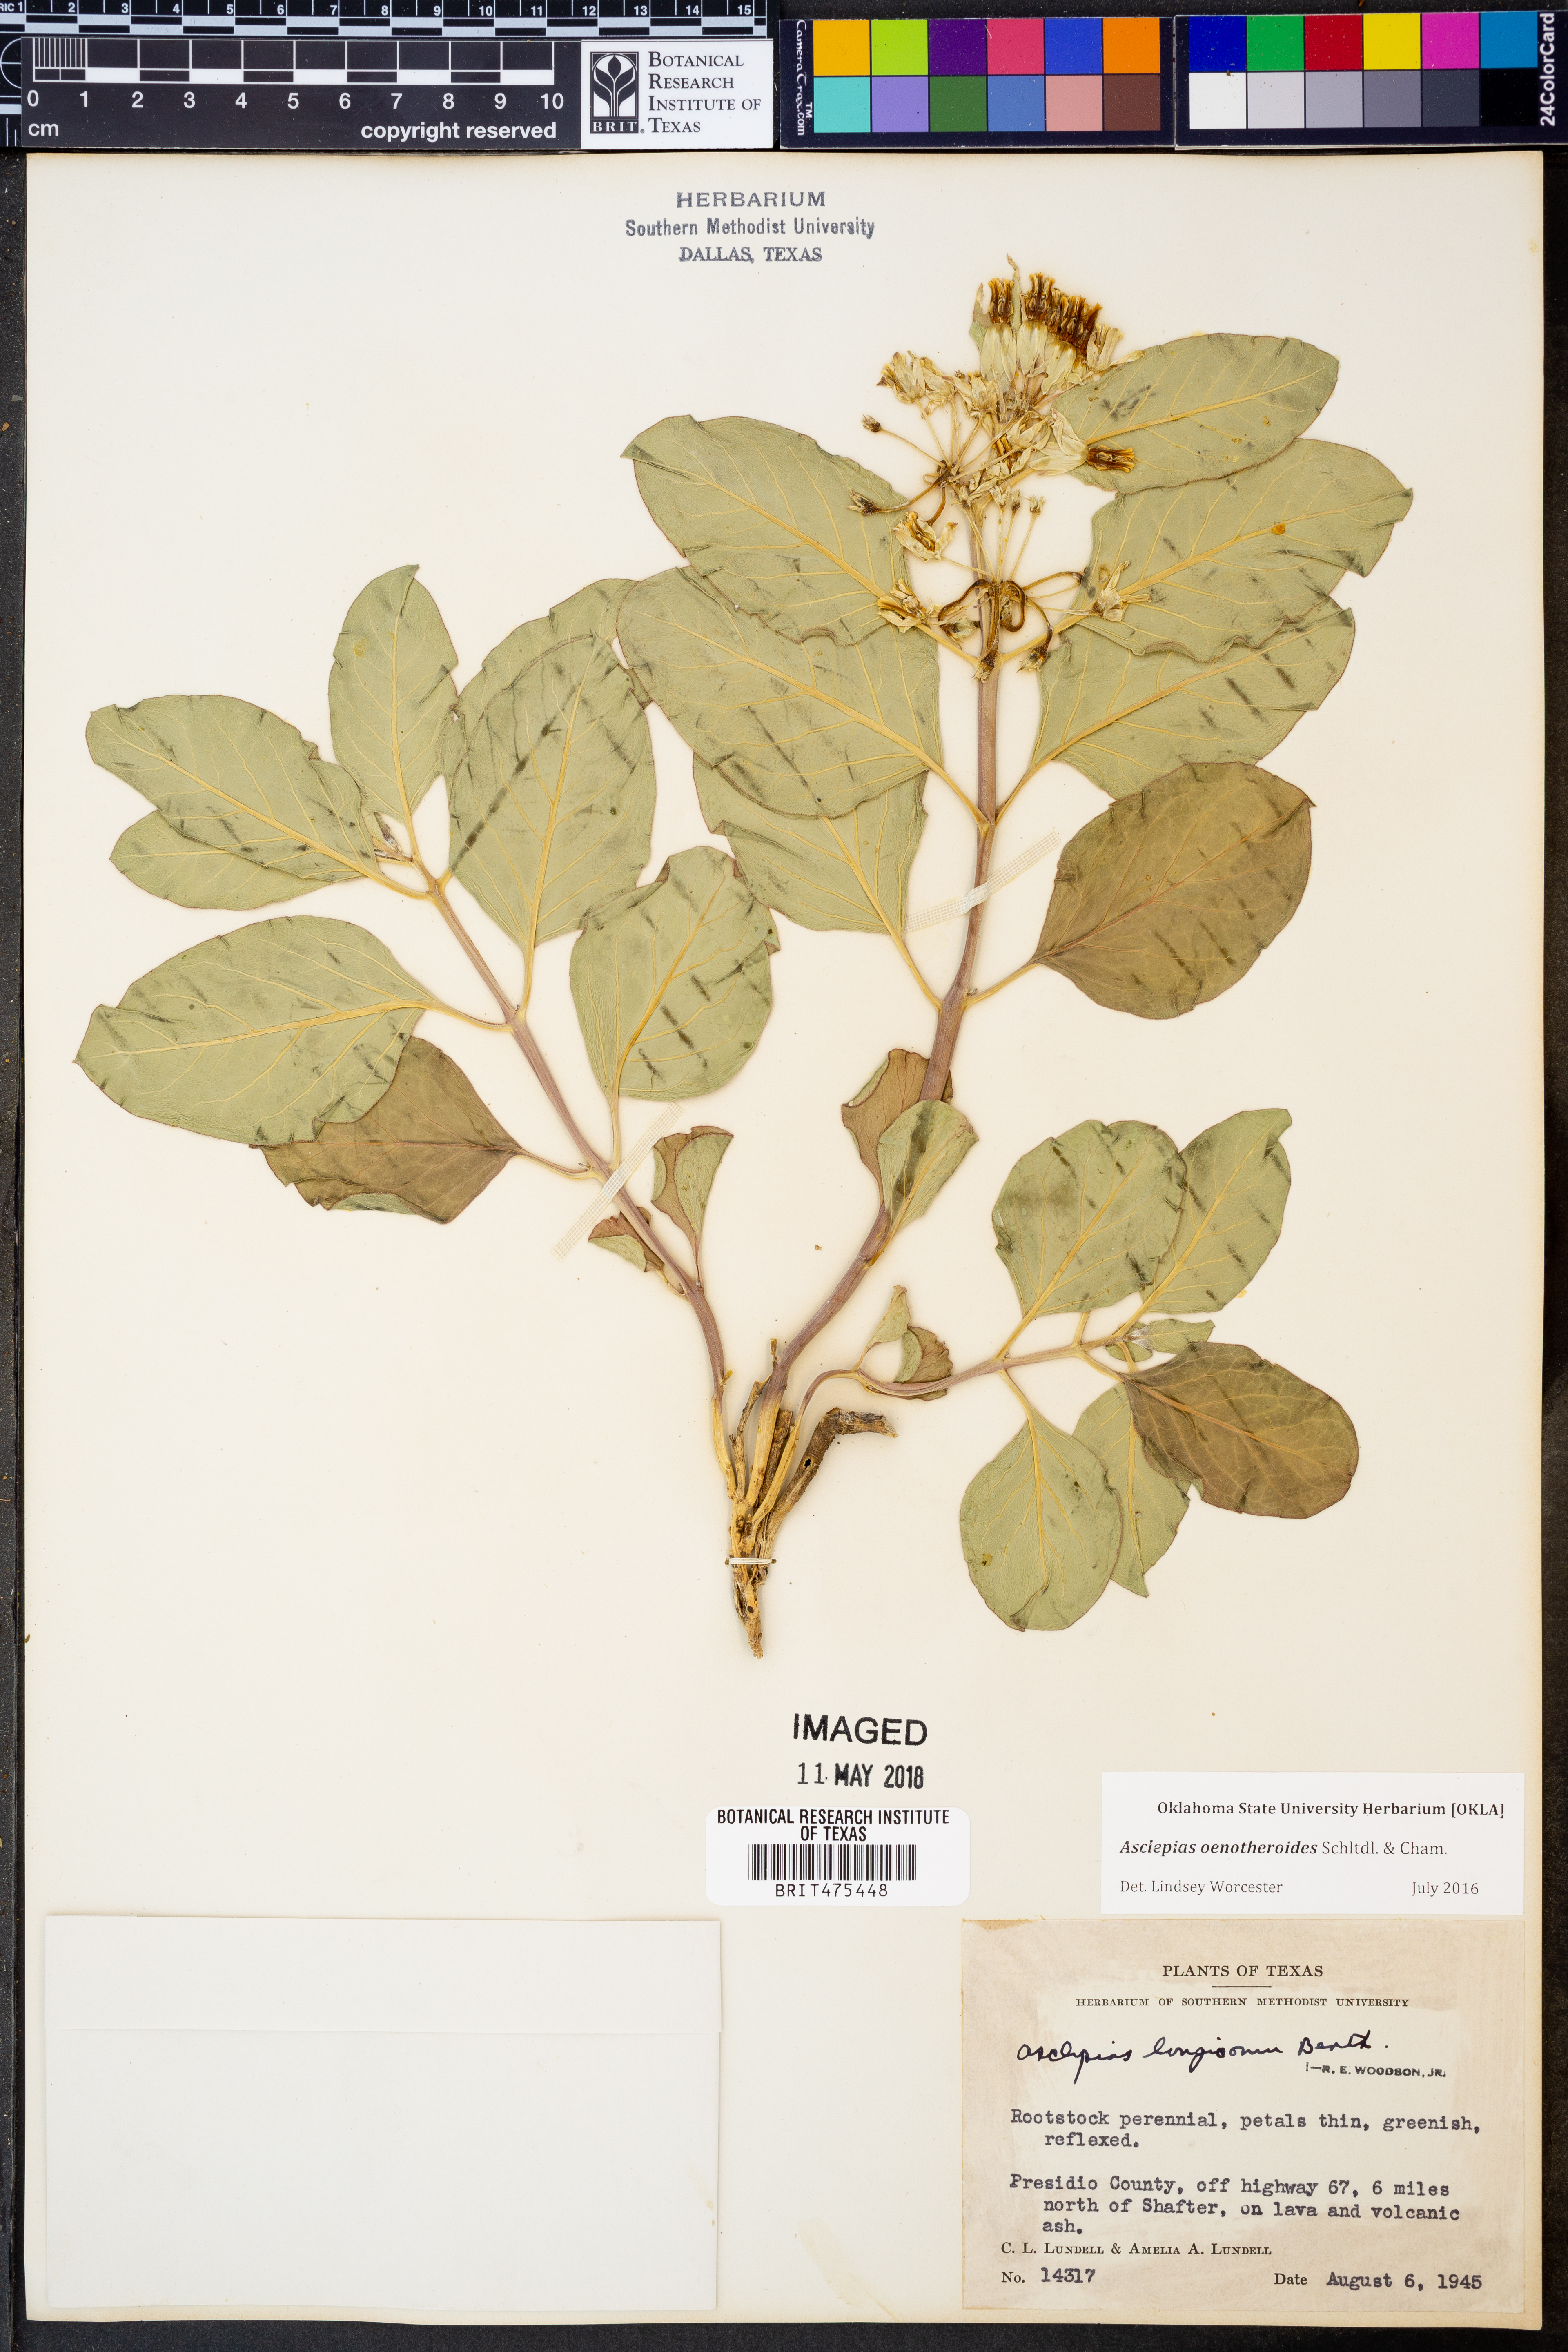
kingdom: Plantae
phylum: Tracheophyta
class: Magnoliopsida
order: Gentianales
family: Apocynaceae
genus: Asclepias
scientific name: Asclepias oenotheroides
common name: Zizotes milkweed
